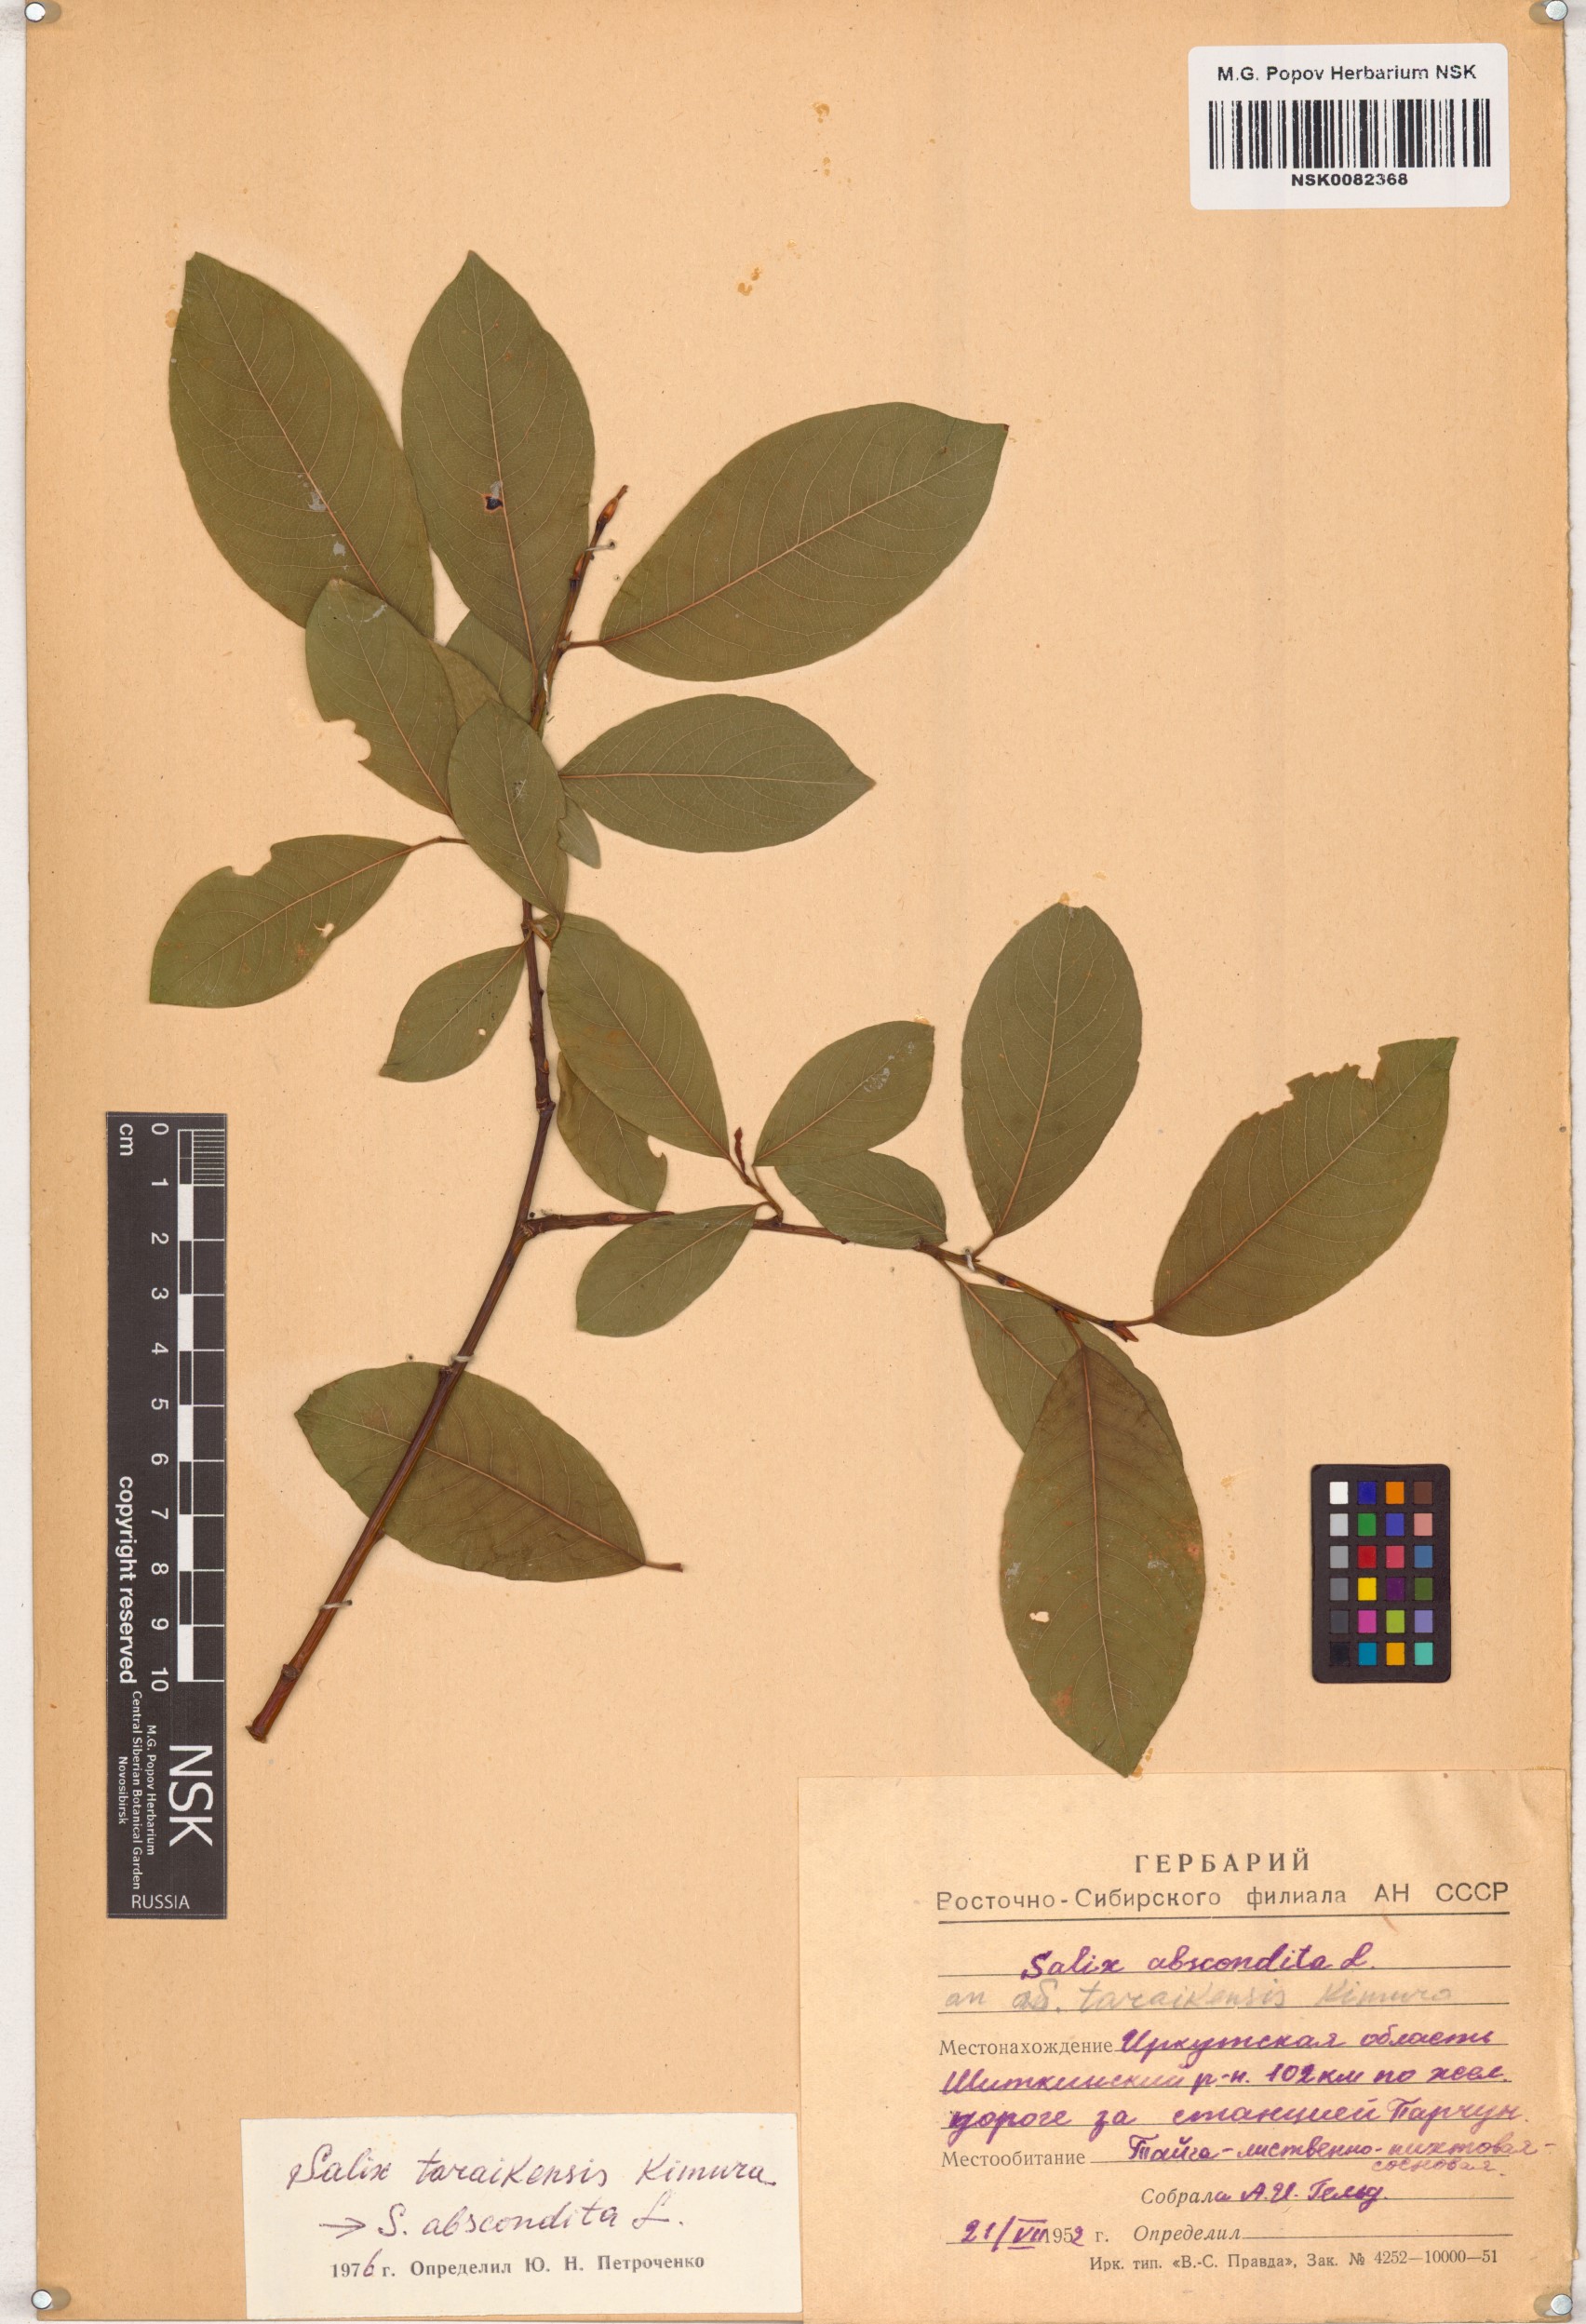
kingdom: Plantae
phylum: Tracheophyta
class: Magnoliopsida
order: Malpighiales
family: Salicaceae
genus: Salix
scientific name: Salix taraikensis
